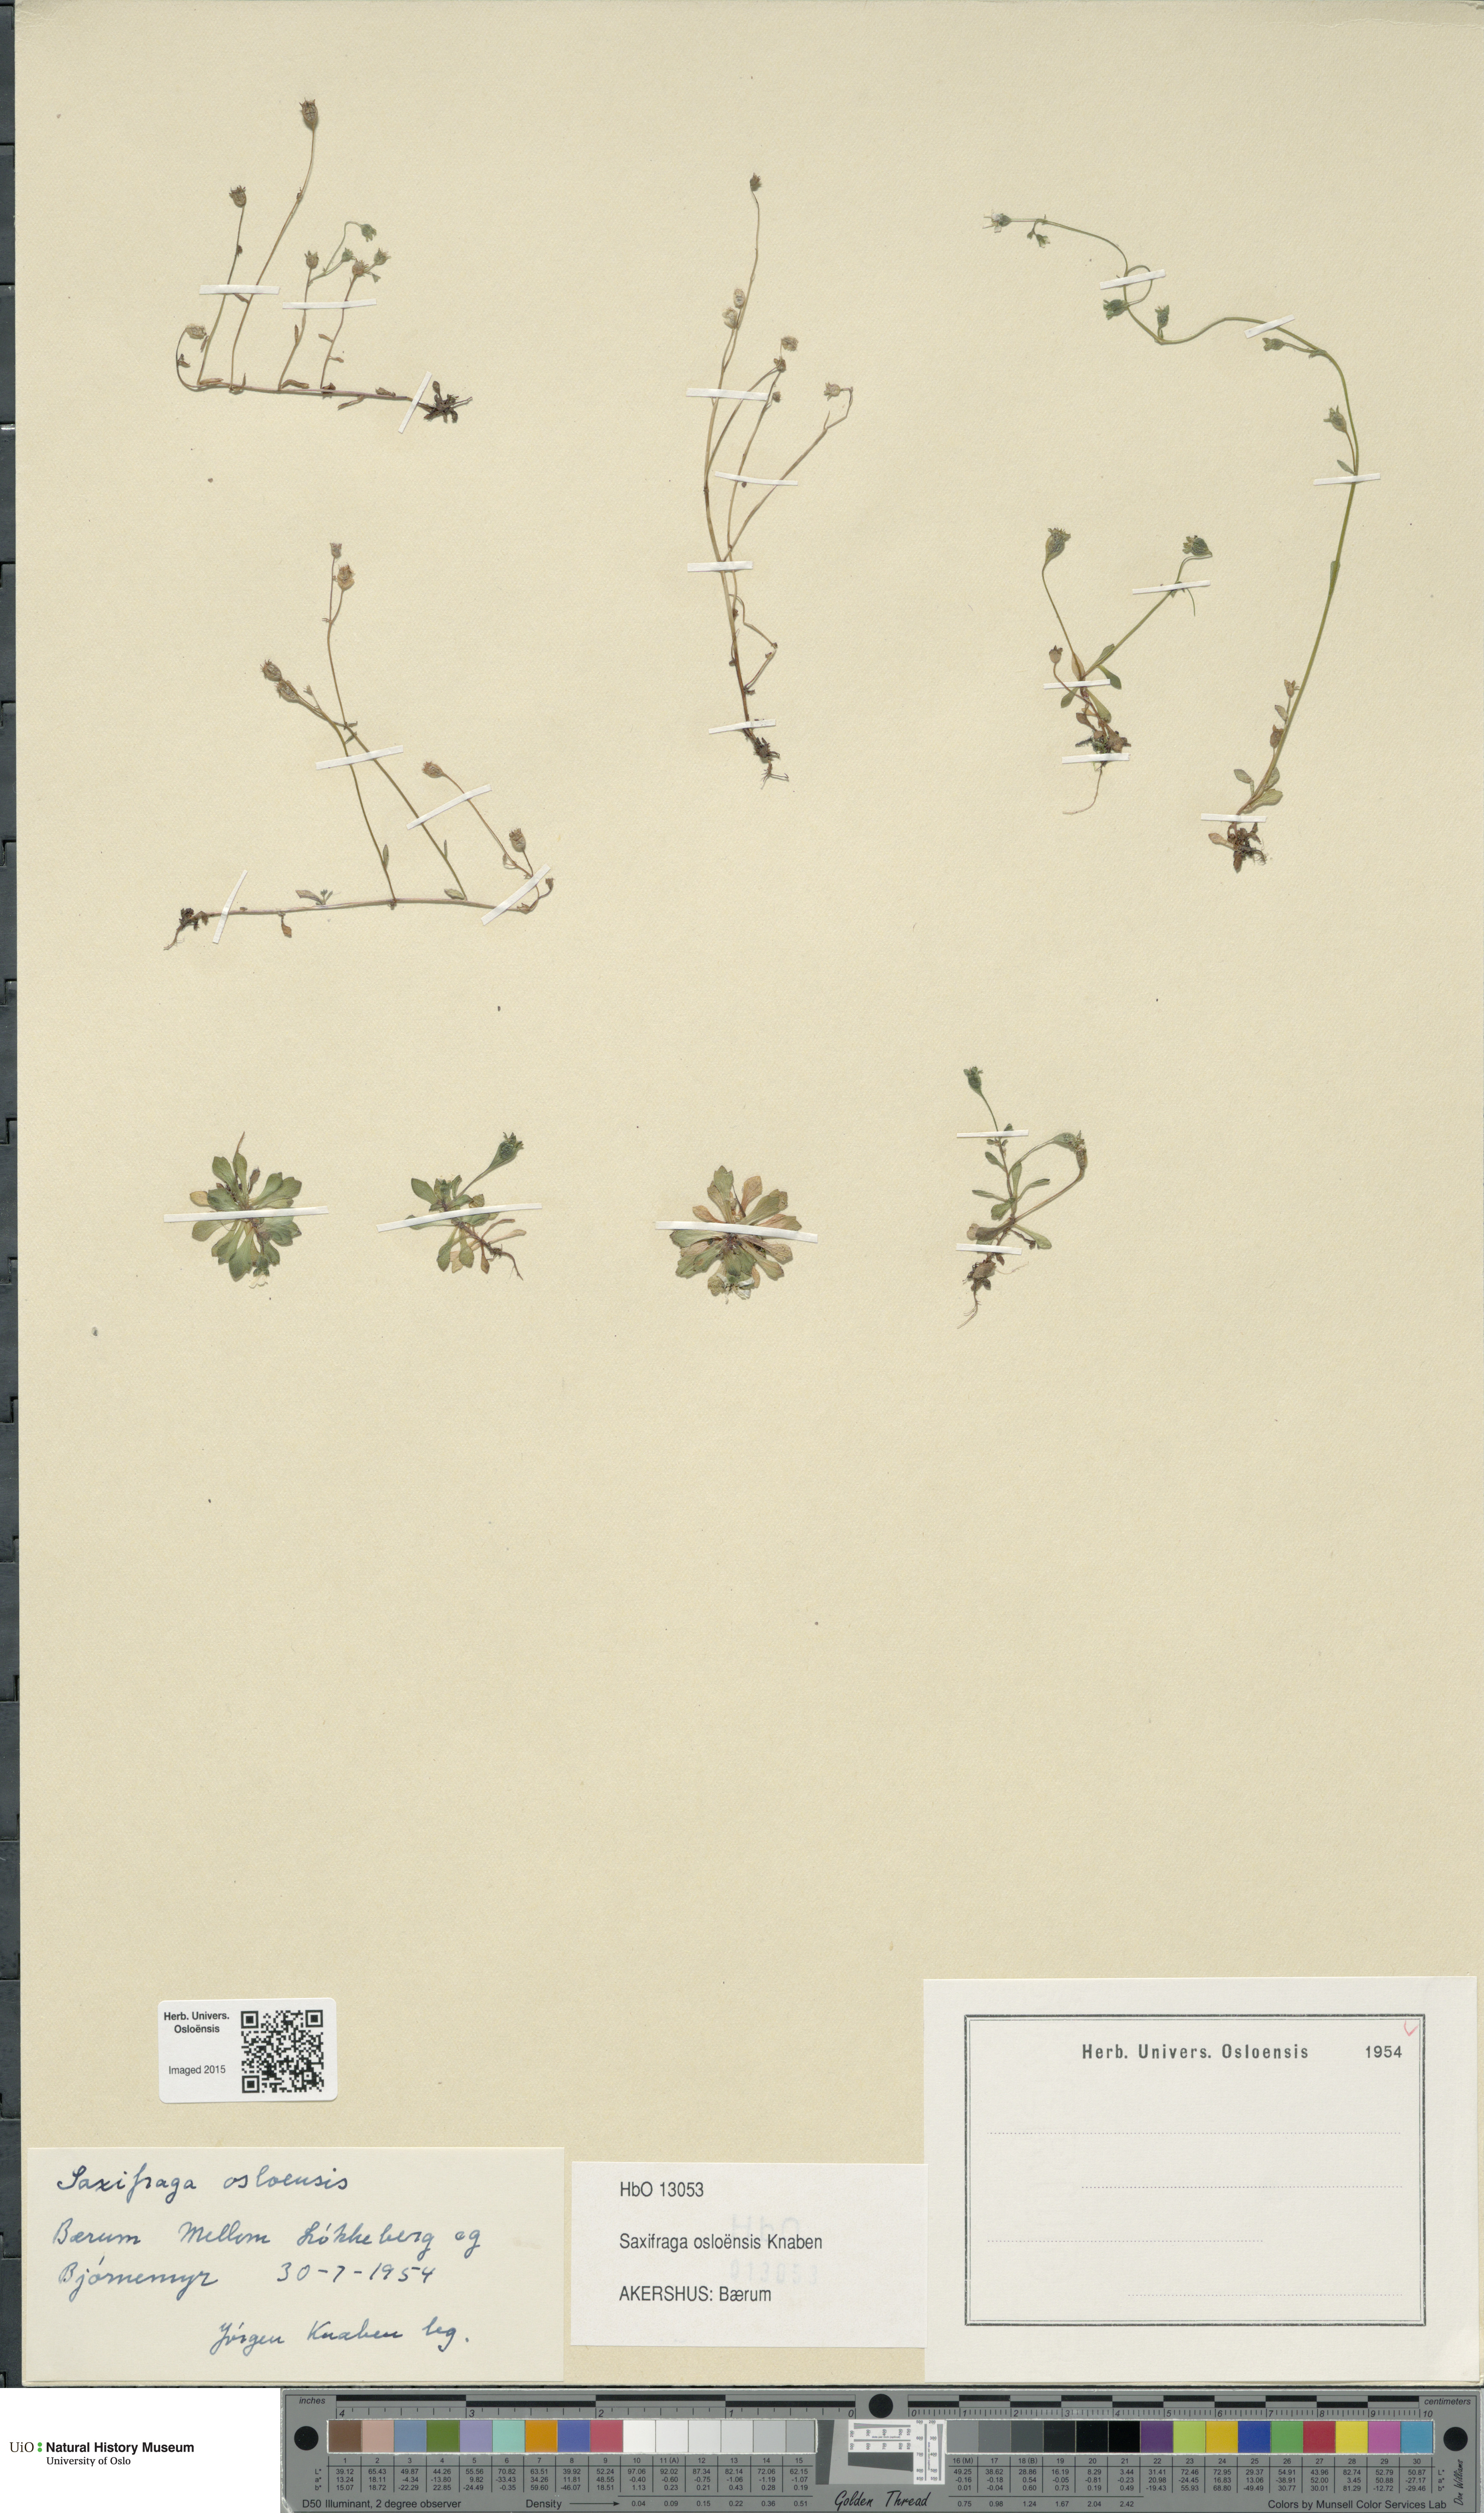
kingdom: Plantae
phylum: Tracheophyta
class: Magnoliopsida
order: Saxifragales
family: Saxifragaceae
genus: Saxifraga
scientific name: Saxifraga osloensis
